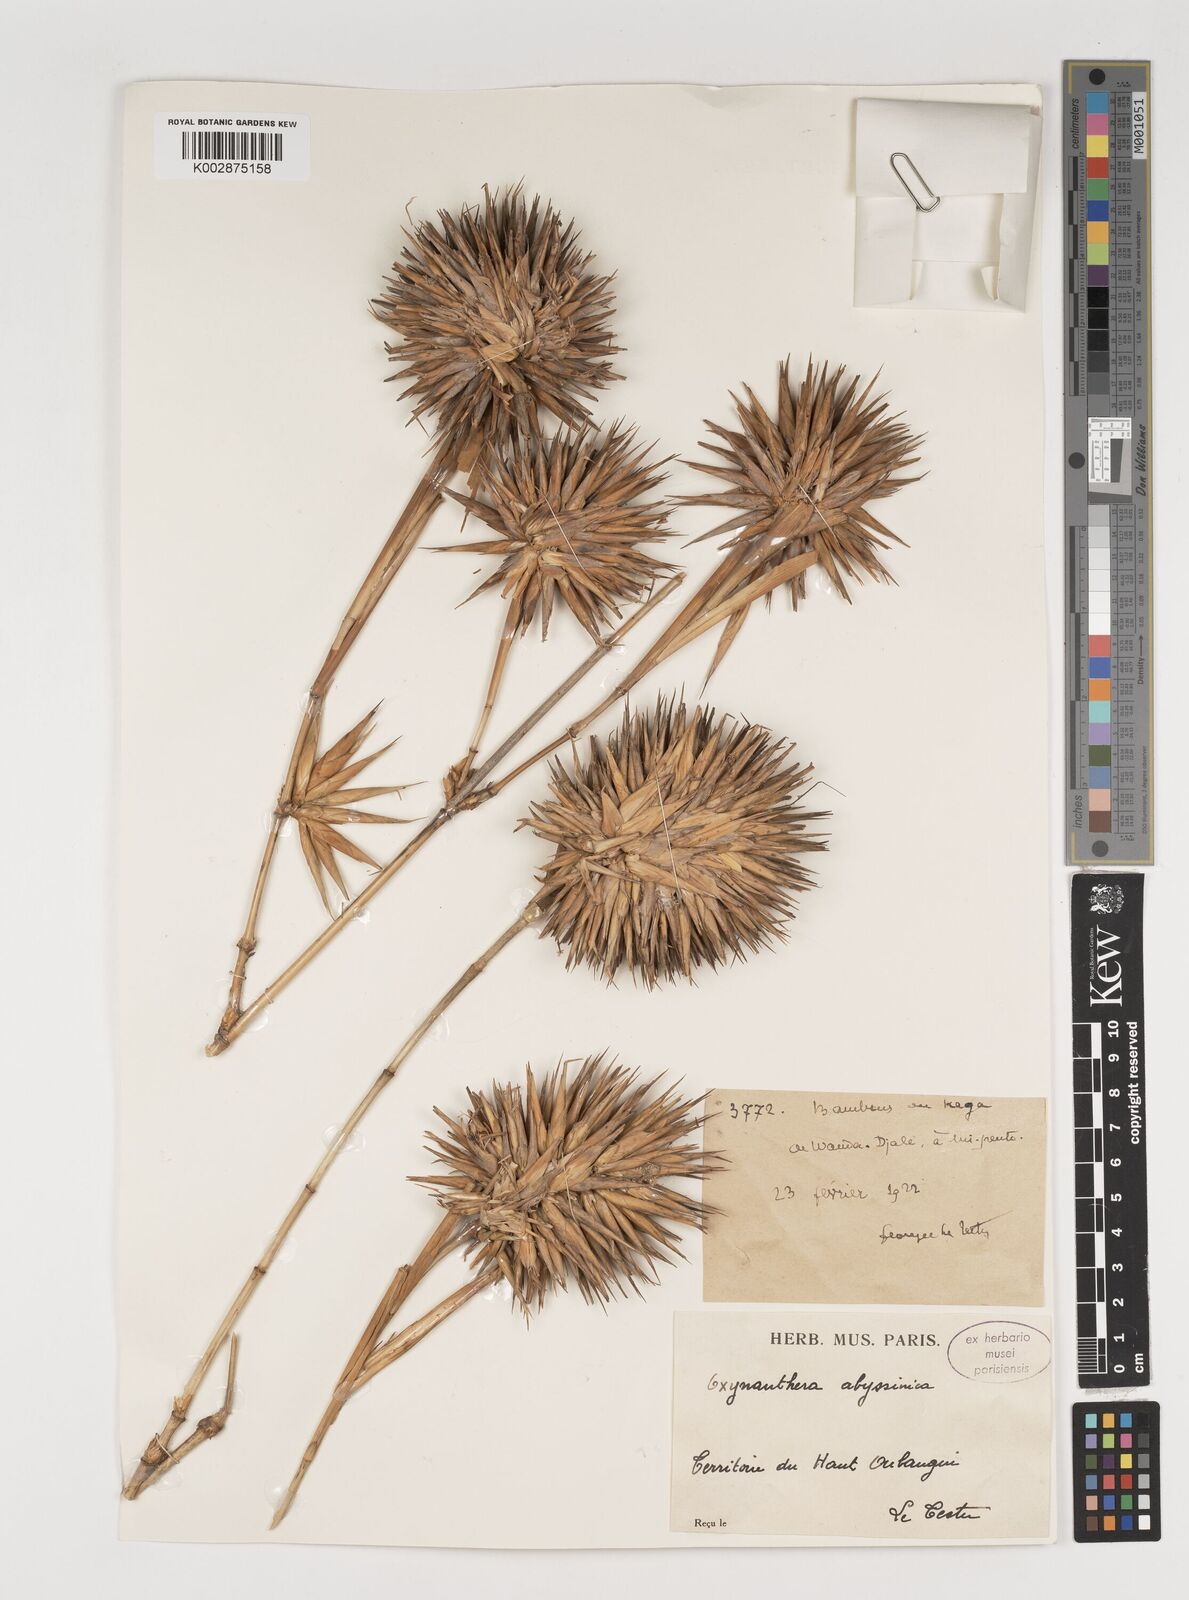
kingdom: Plantae
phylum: Tracheophyta
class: Liliopsida
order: Poales
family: Poaceae
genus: Oxytenanthera
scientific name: Oxytenanthera abyssinica
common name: Wine bamboo
